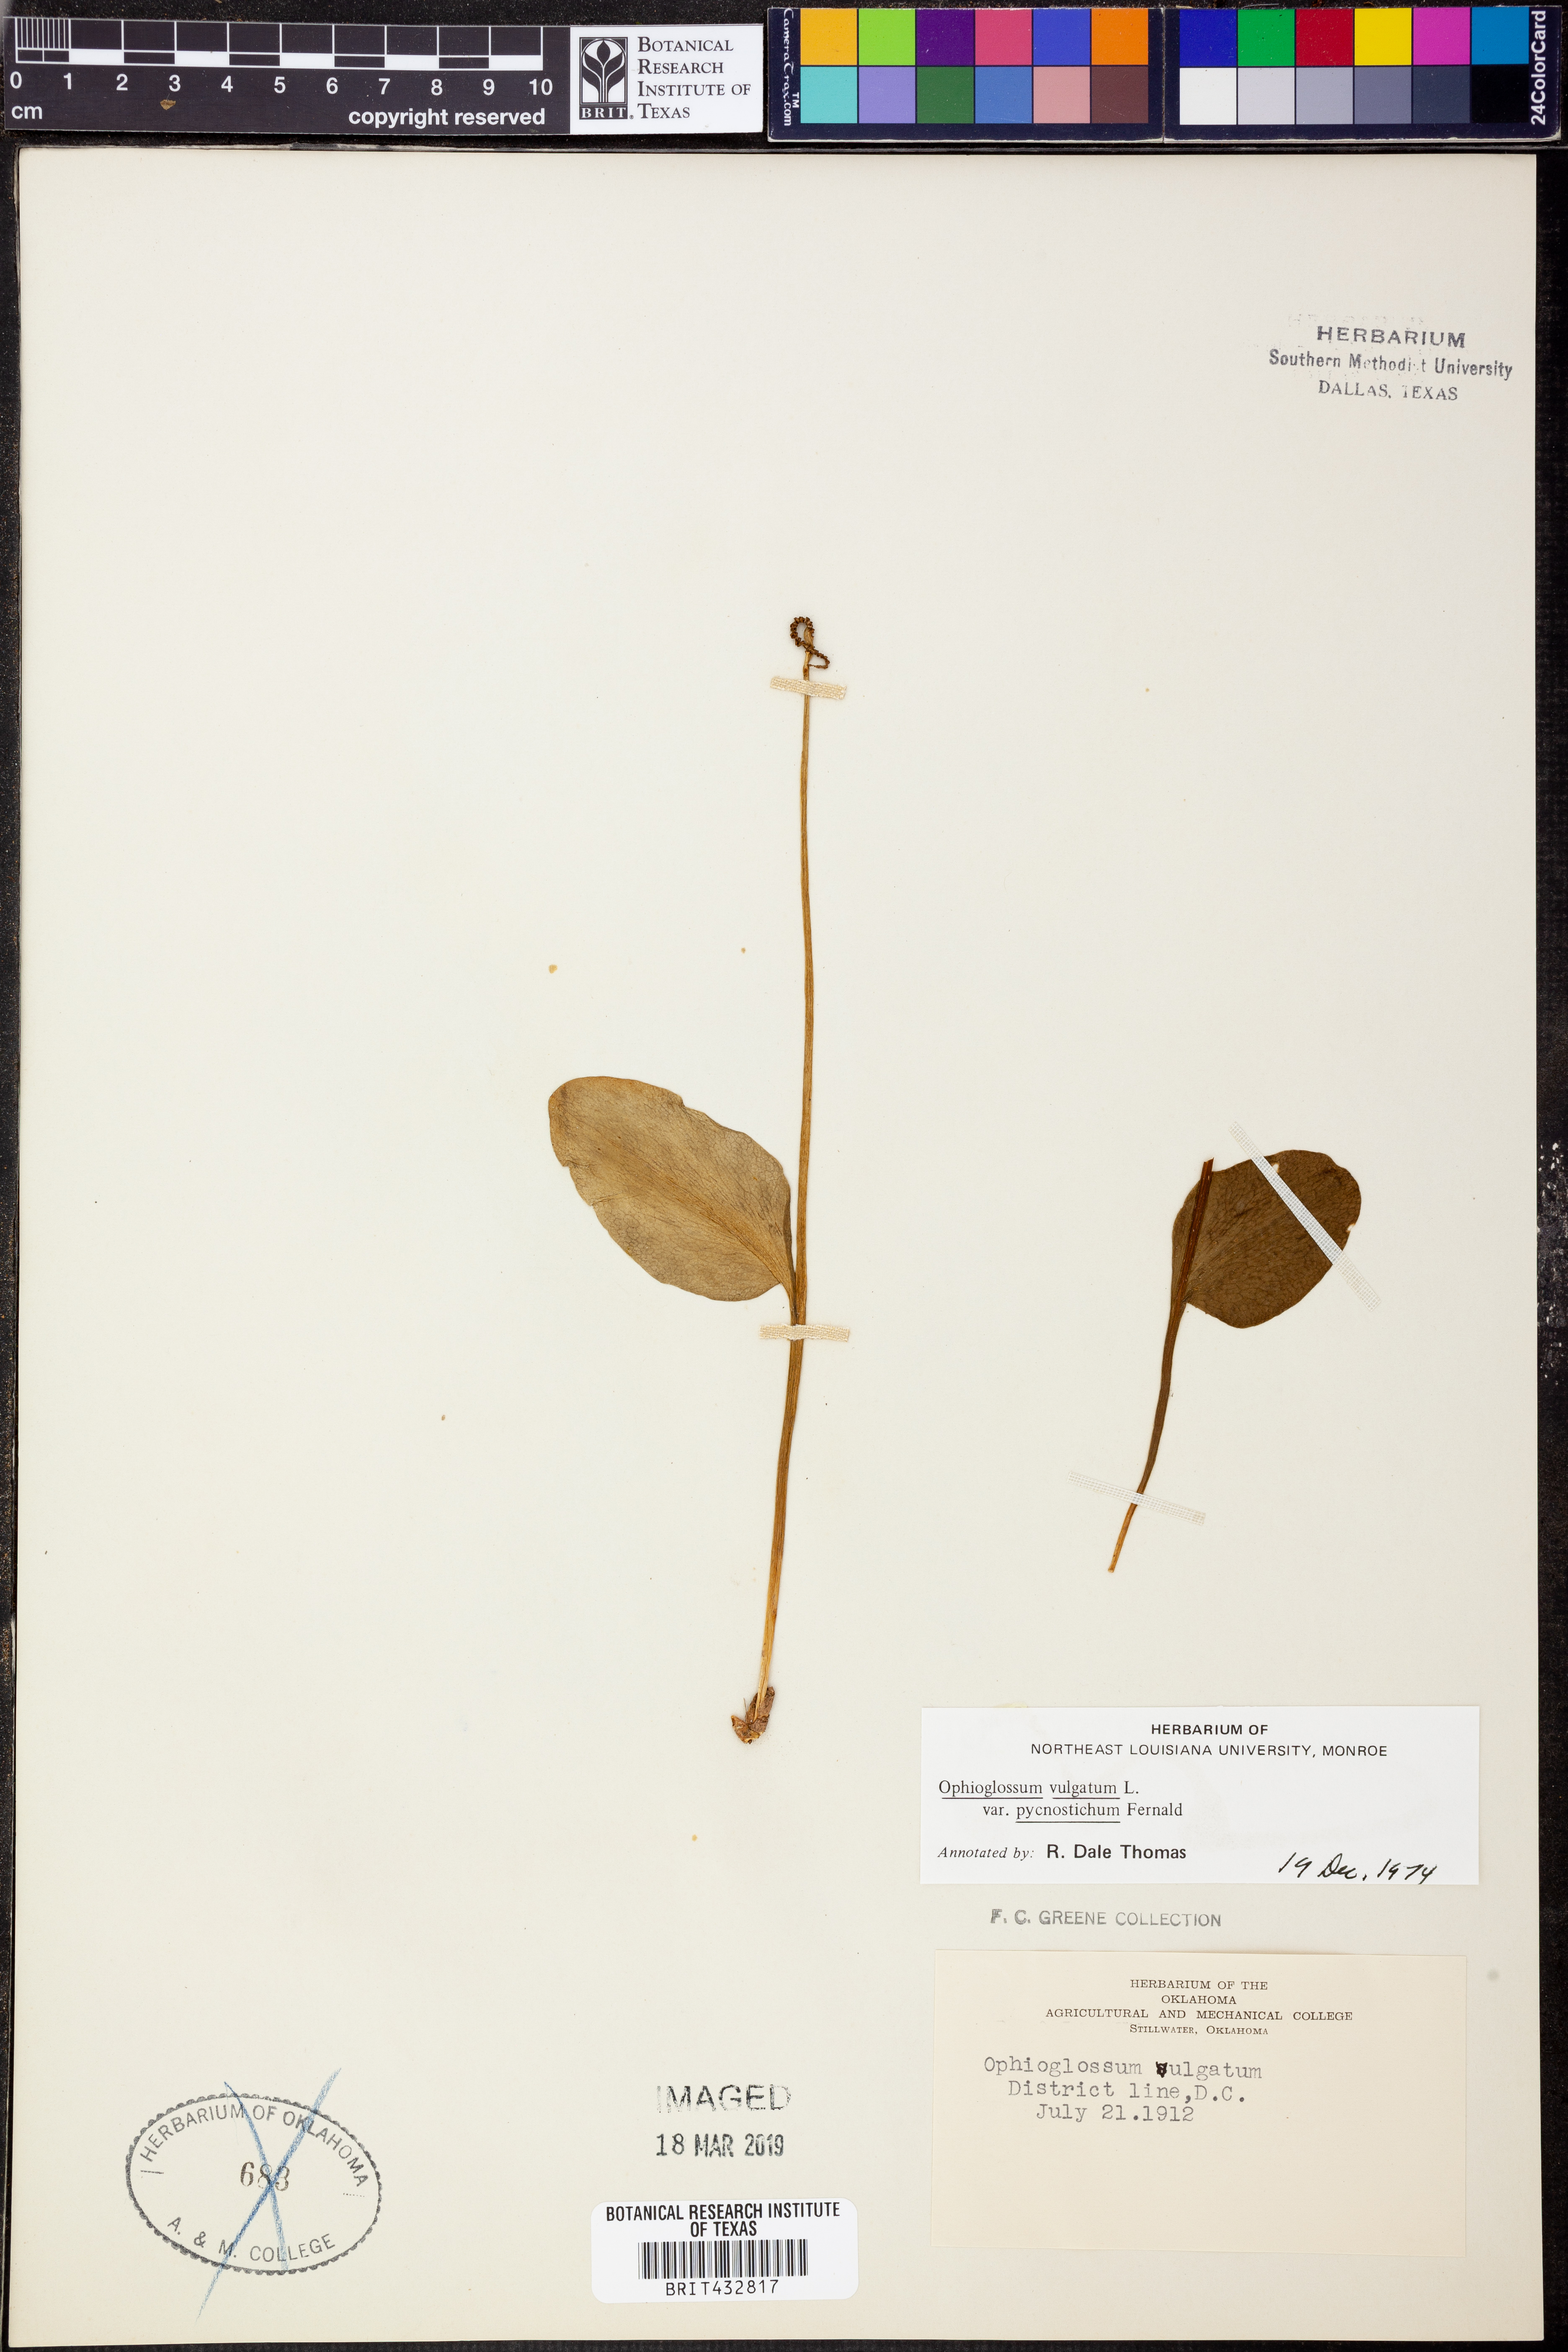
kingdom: Plantae
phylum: Tracheophyta
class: Polypodiopsida
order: Ophioglossales
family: Ophioglossaceae
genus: Ophioglossum
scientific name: Ophioglossum vulgatum
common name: Adder's-tongue
